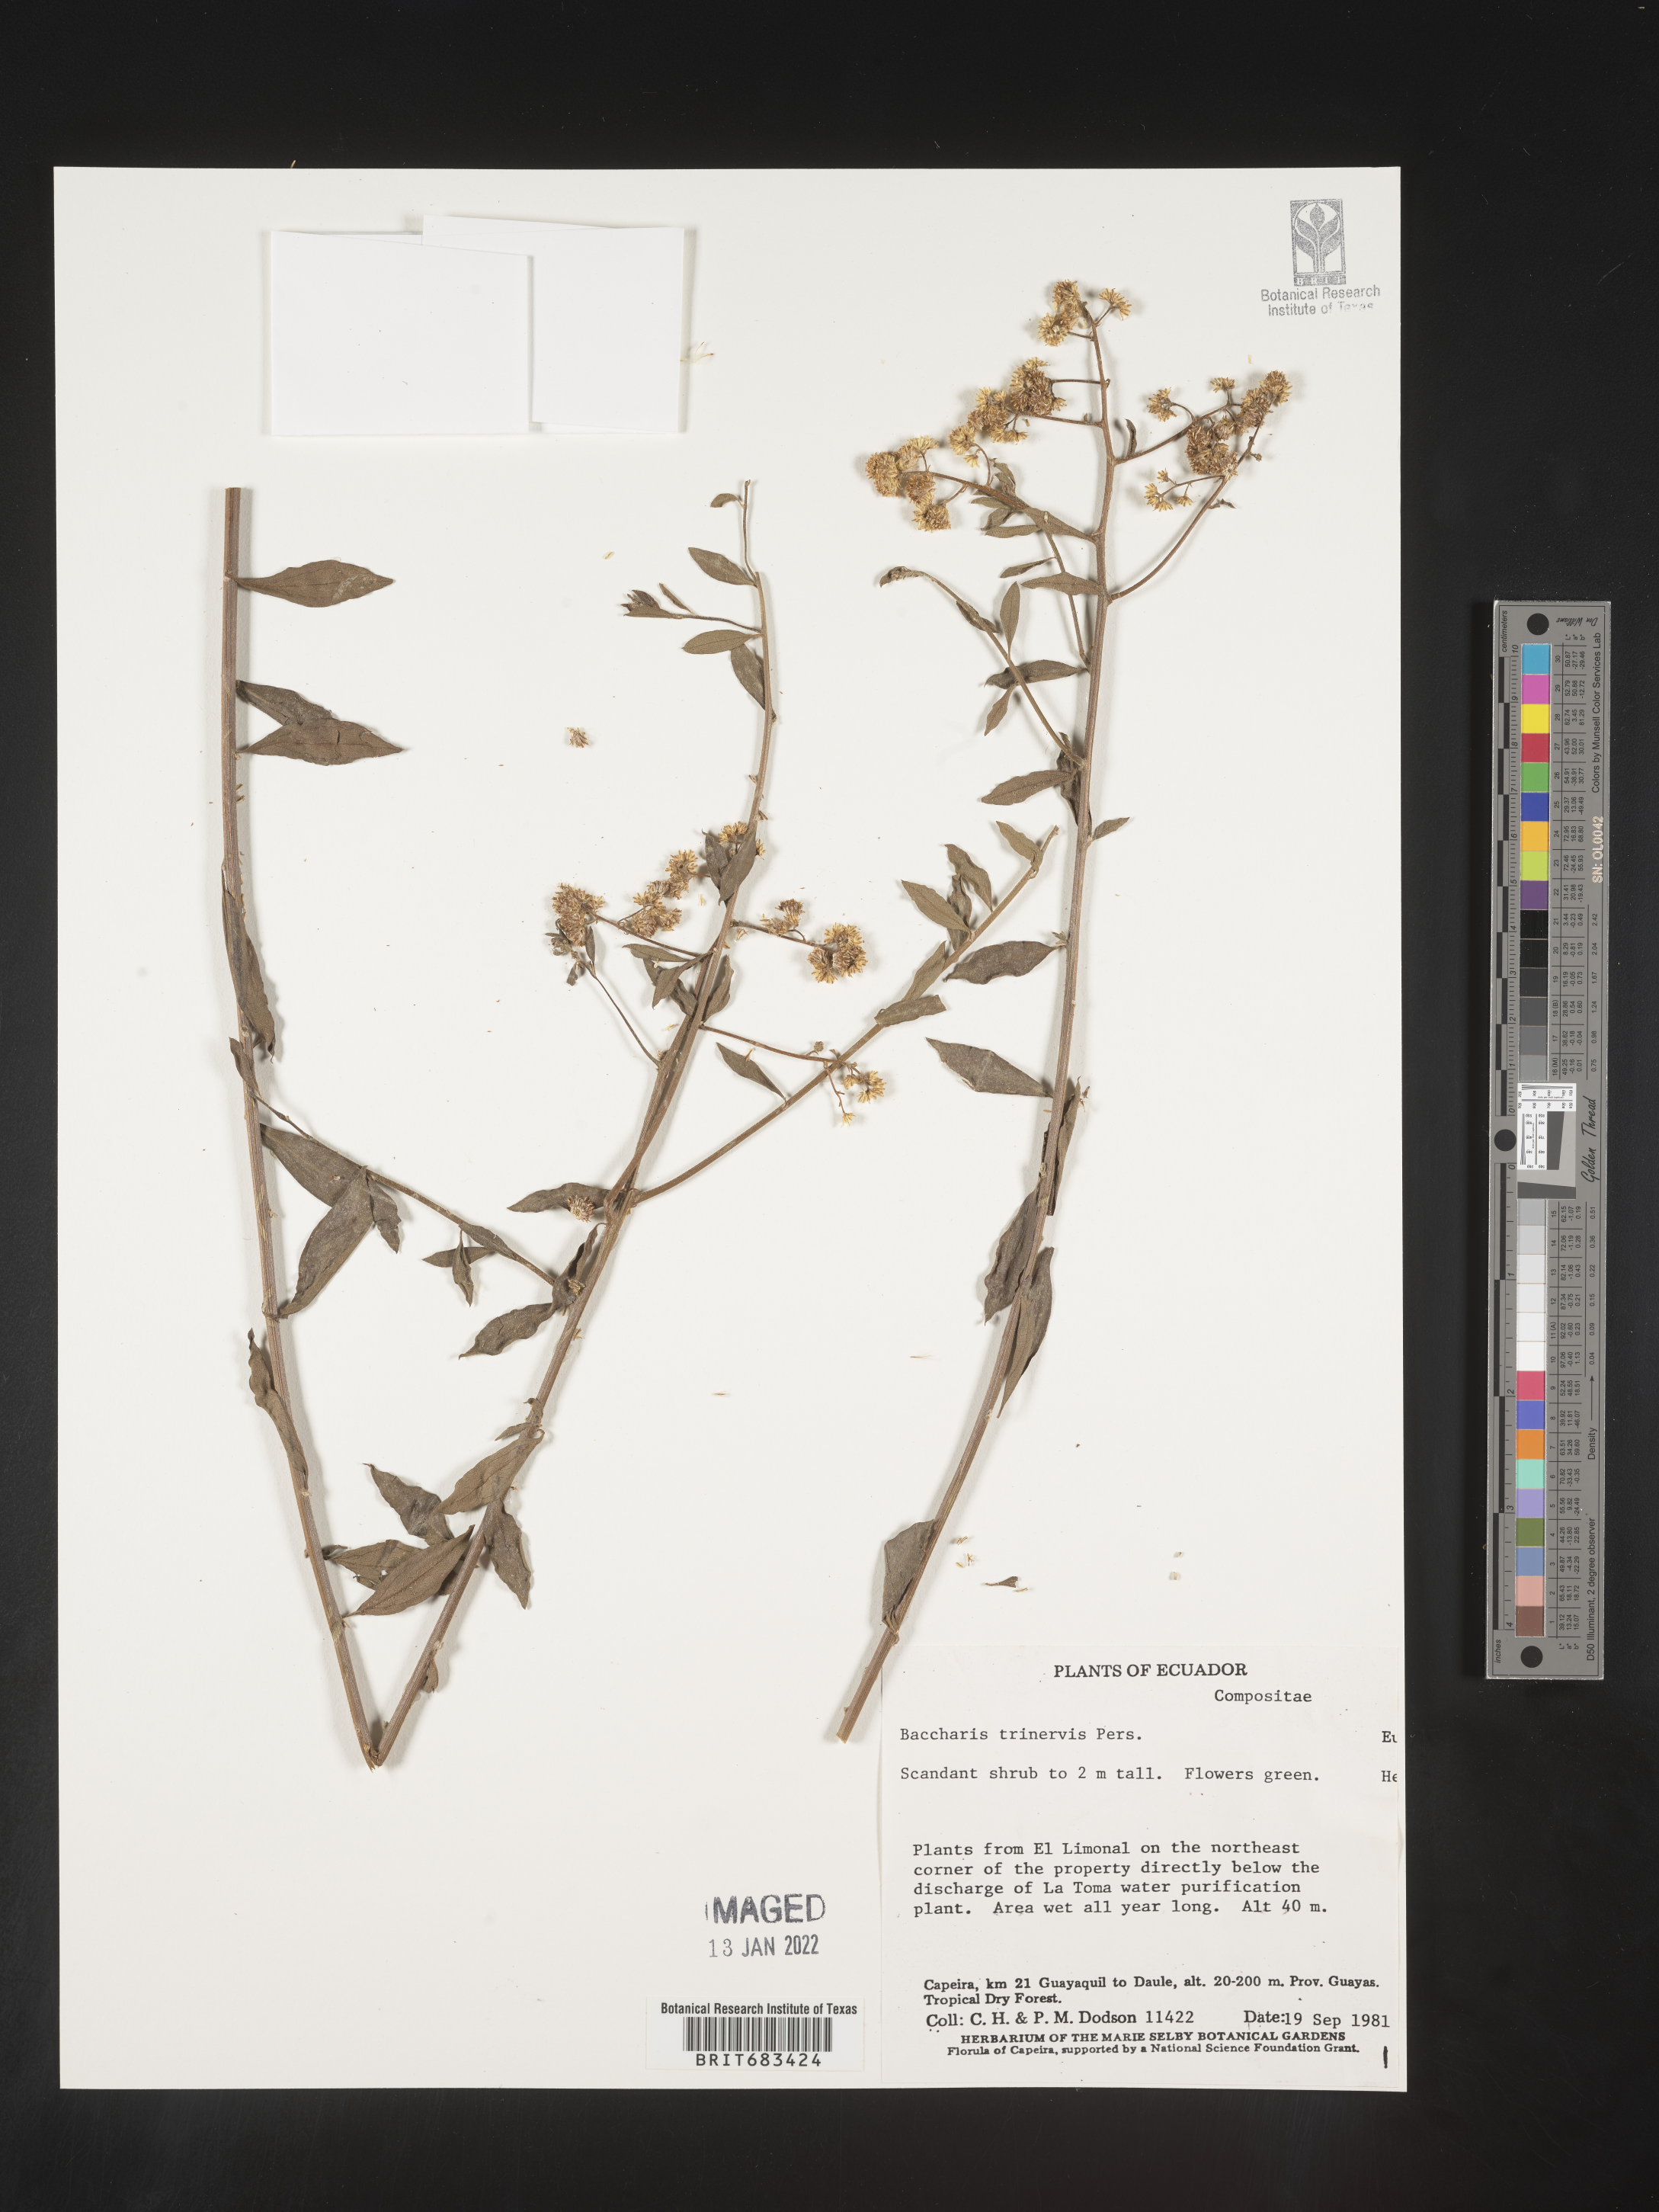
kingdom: Plantae
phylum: Tracheophyta
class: Magnoliopsida
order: Asterales
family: Asteraceae
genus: Baccharis
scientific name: Baccharis trinervis
